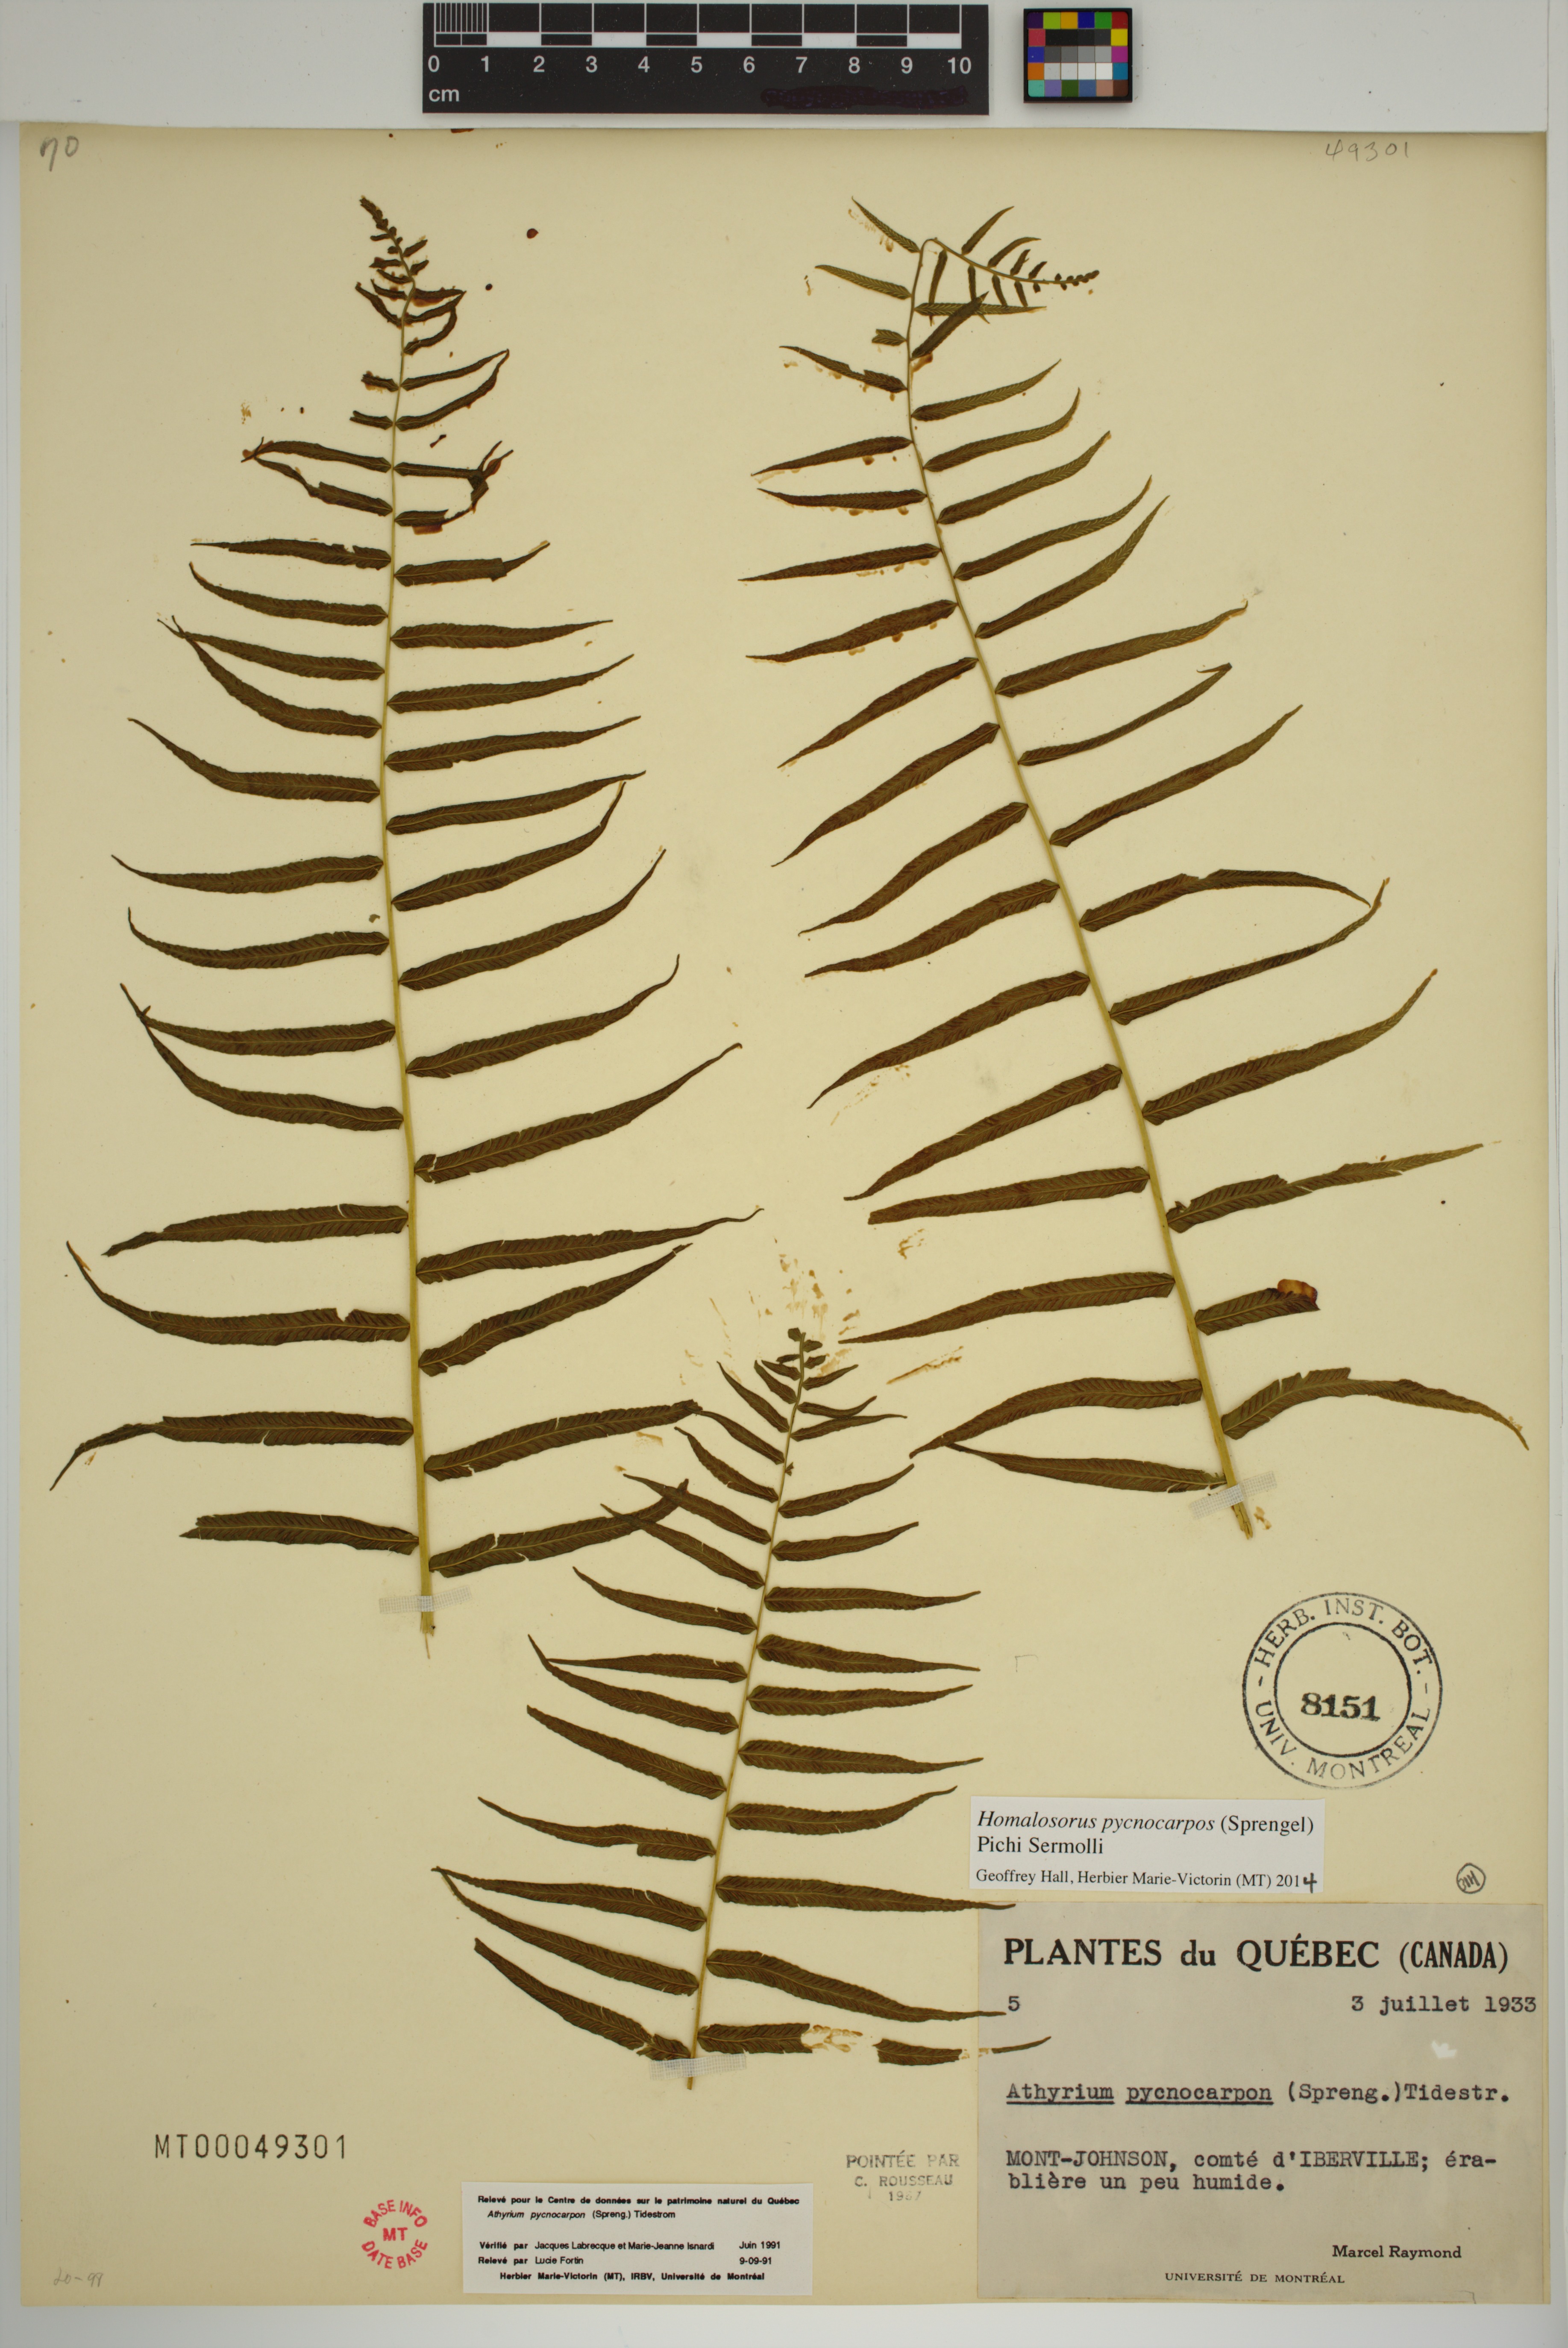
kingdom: Plantae
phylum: Tracheophyta
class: Polypodiopsida
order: Polypodiales
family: Diplaziopsidaceae
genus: Homalosorus
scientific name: Homalosorus pycnocarpos
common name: Glade fern
